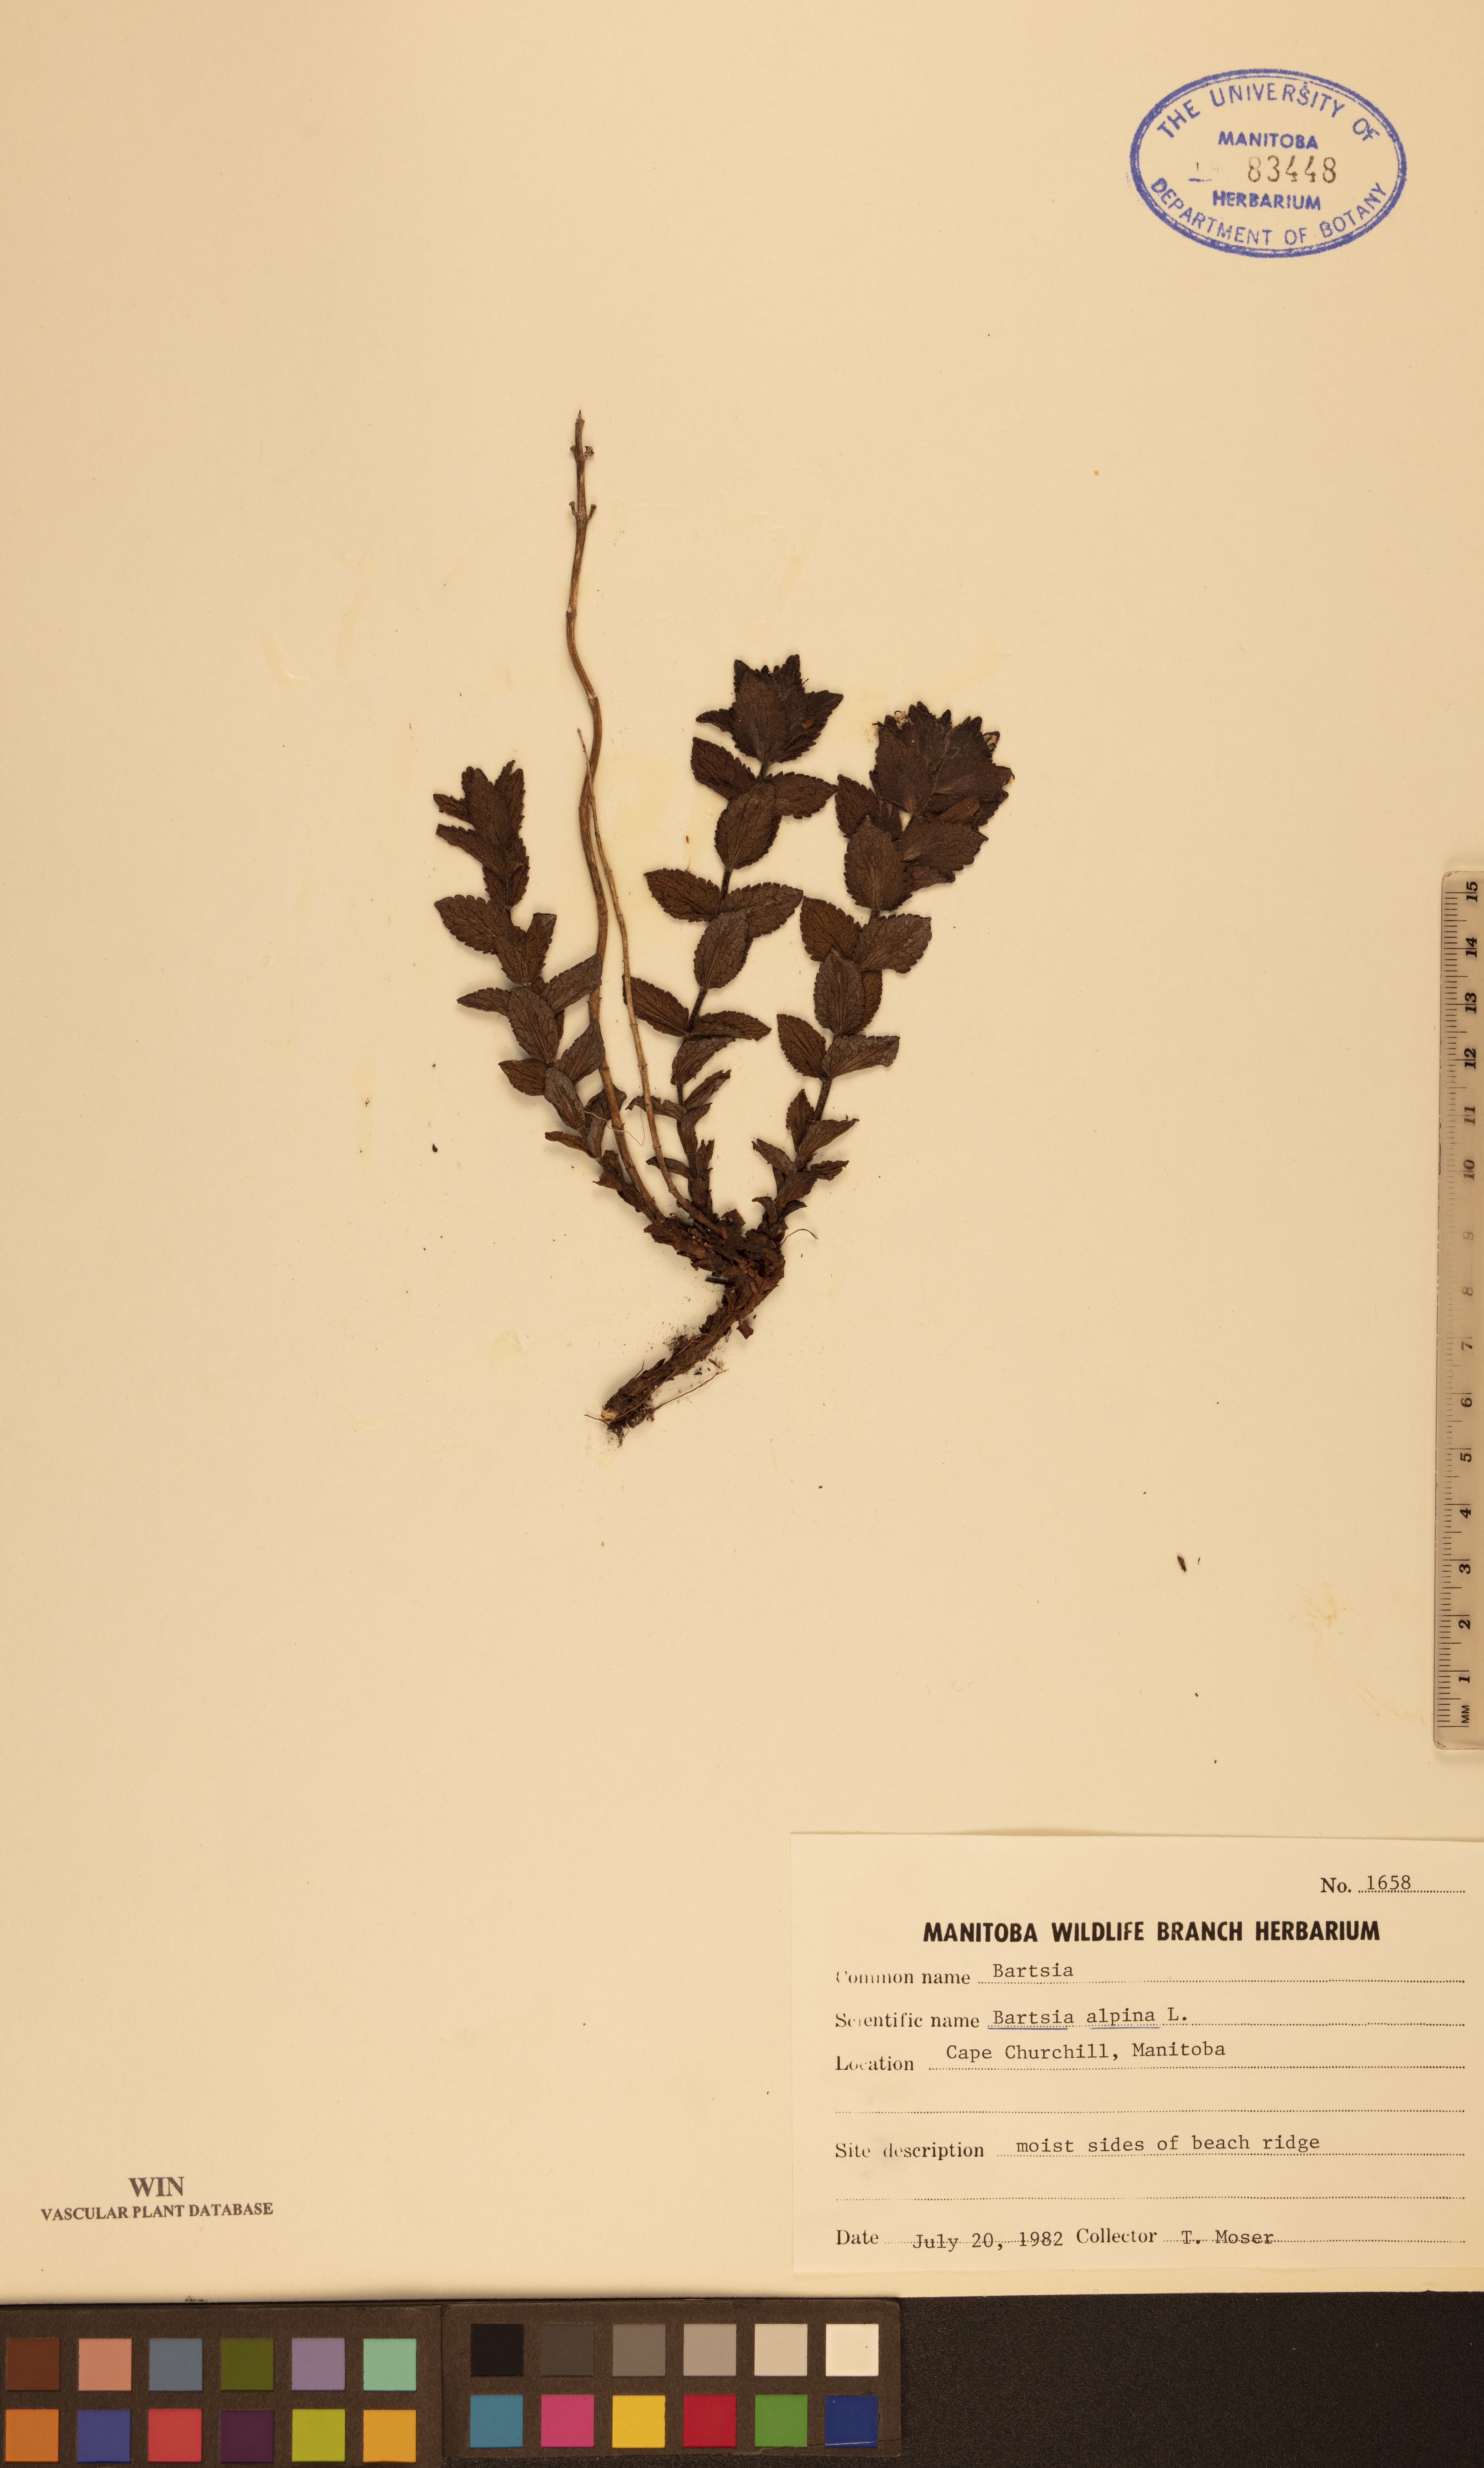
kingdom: Plantae
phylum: Tracheophyta
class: Magnoliopsida
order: Lamiales
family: Orobanchaceae
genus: Bartsia
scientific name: Bartsia alpina
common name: Alpine bartsia
